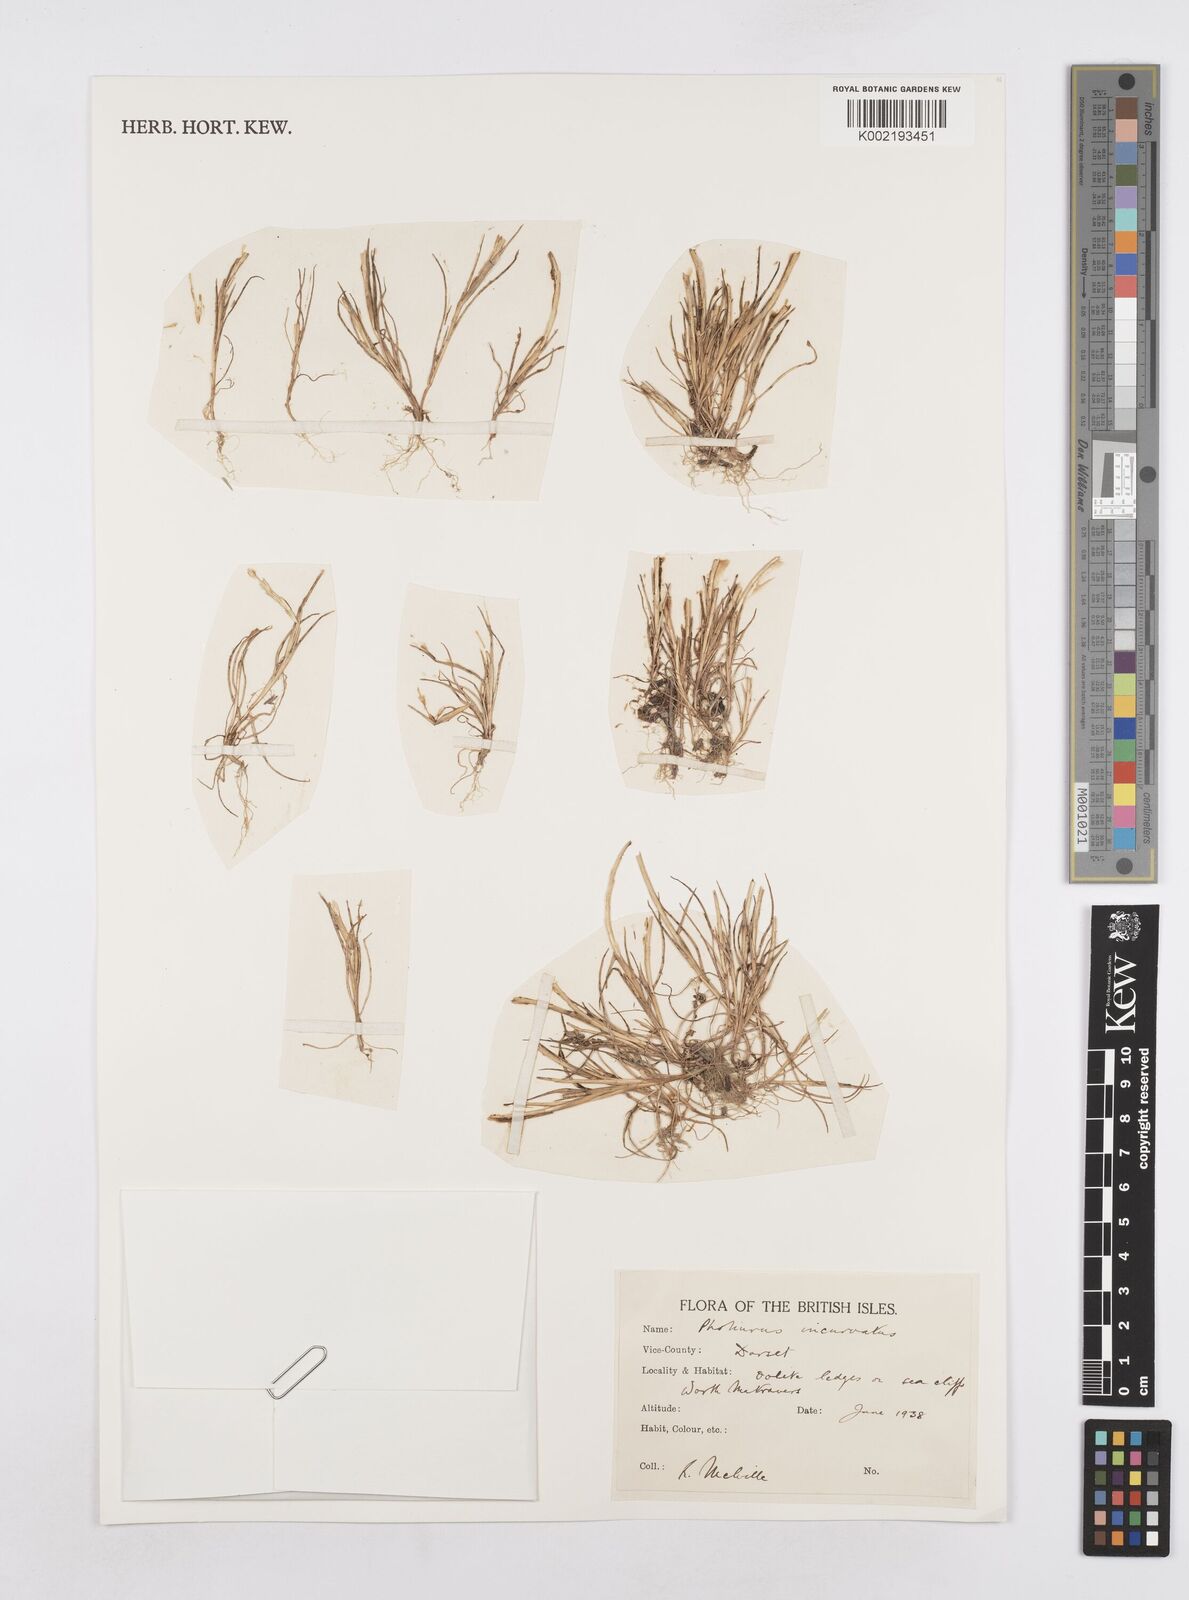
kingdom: Plantae
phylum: Tracheophyta
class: Liliopsida
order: Poales
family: Poaceae
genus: Parapholis
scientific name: Parapholis incurva
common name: Curved sicklegrass
